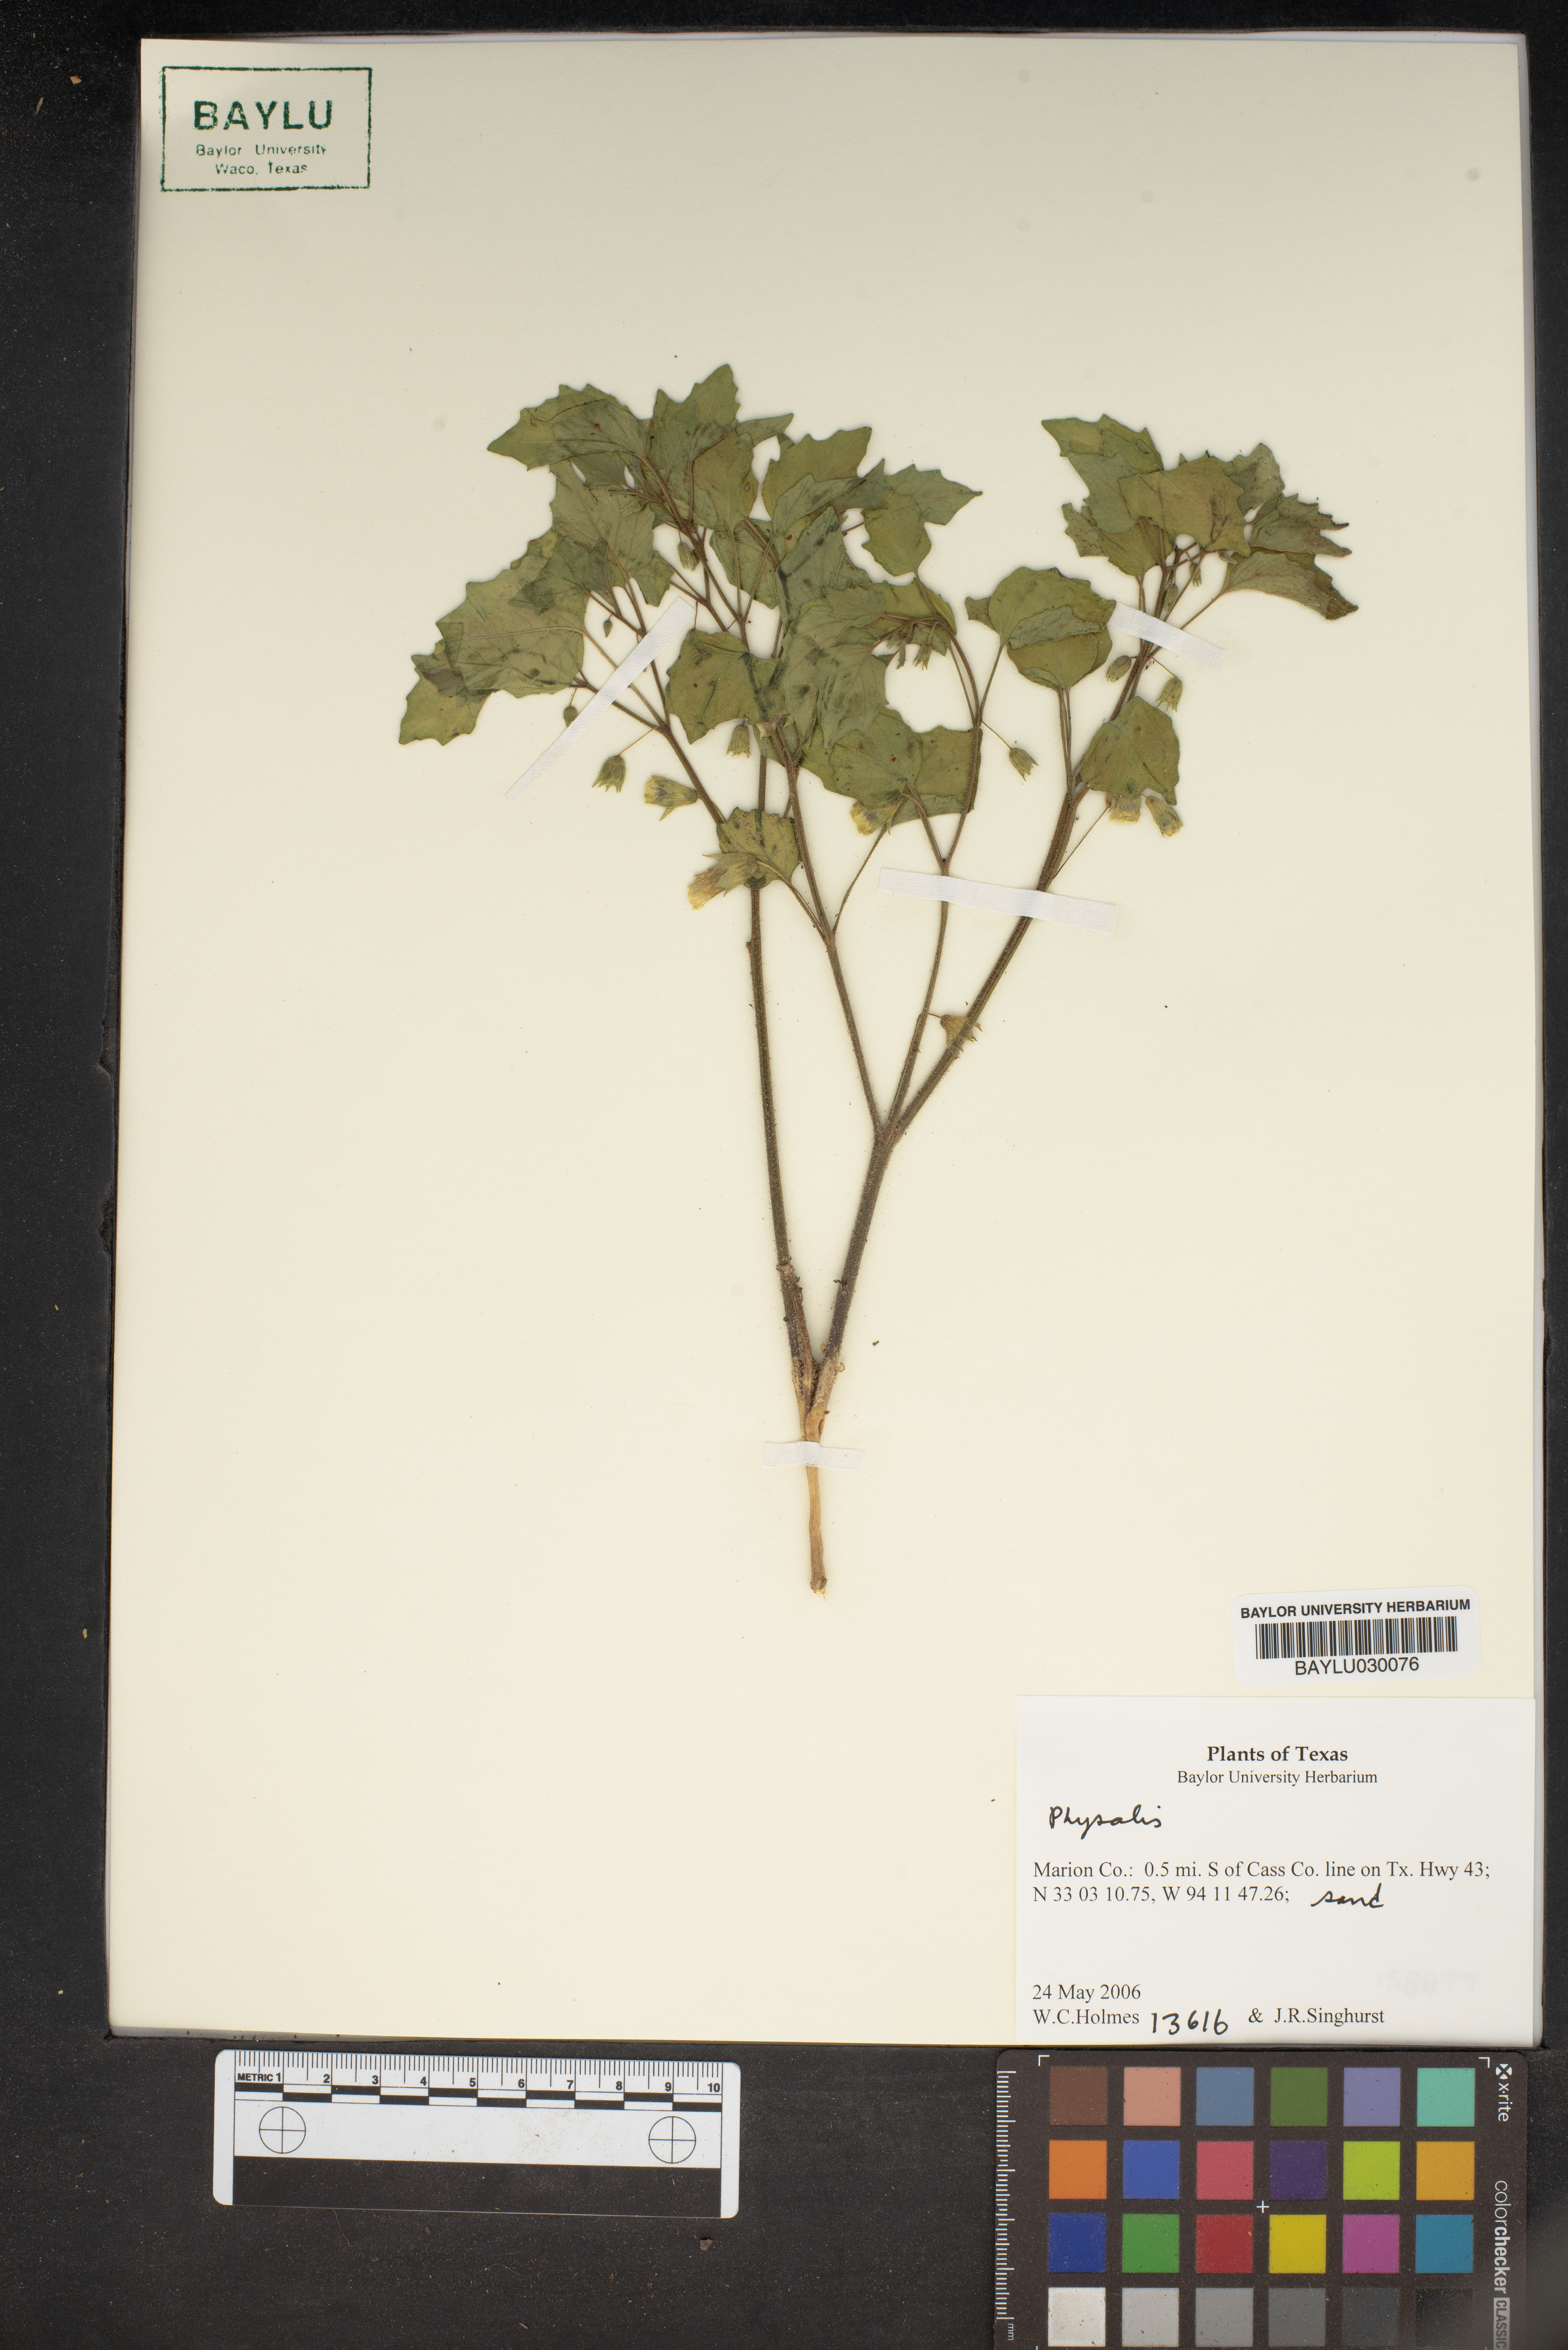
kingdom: Plantae
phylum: Tracheophyta
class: Magnoliopsida
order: Solanales
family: Solanaceae
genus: Physalis
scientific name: Physalis
